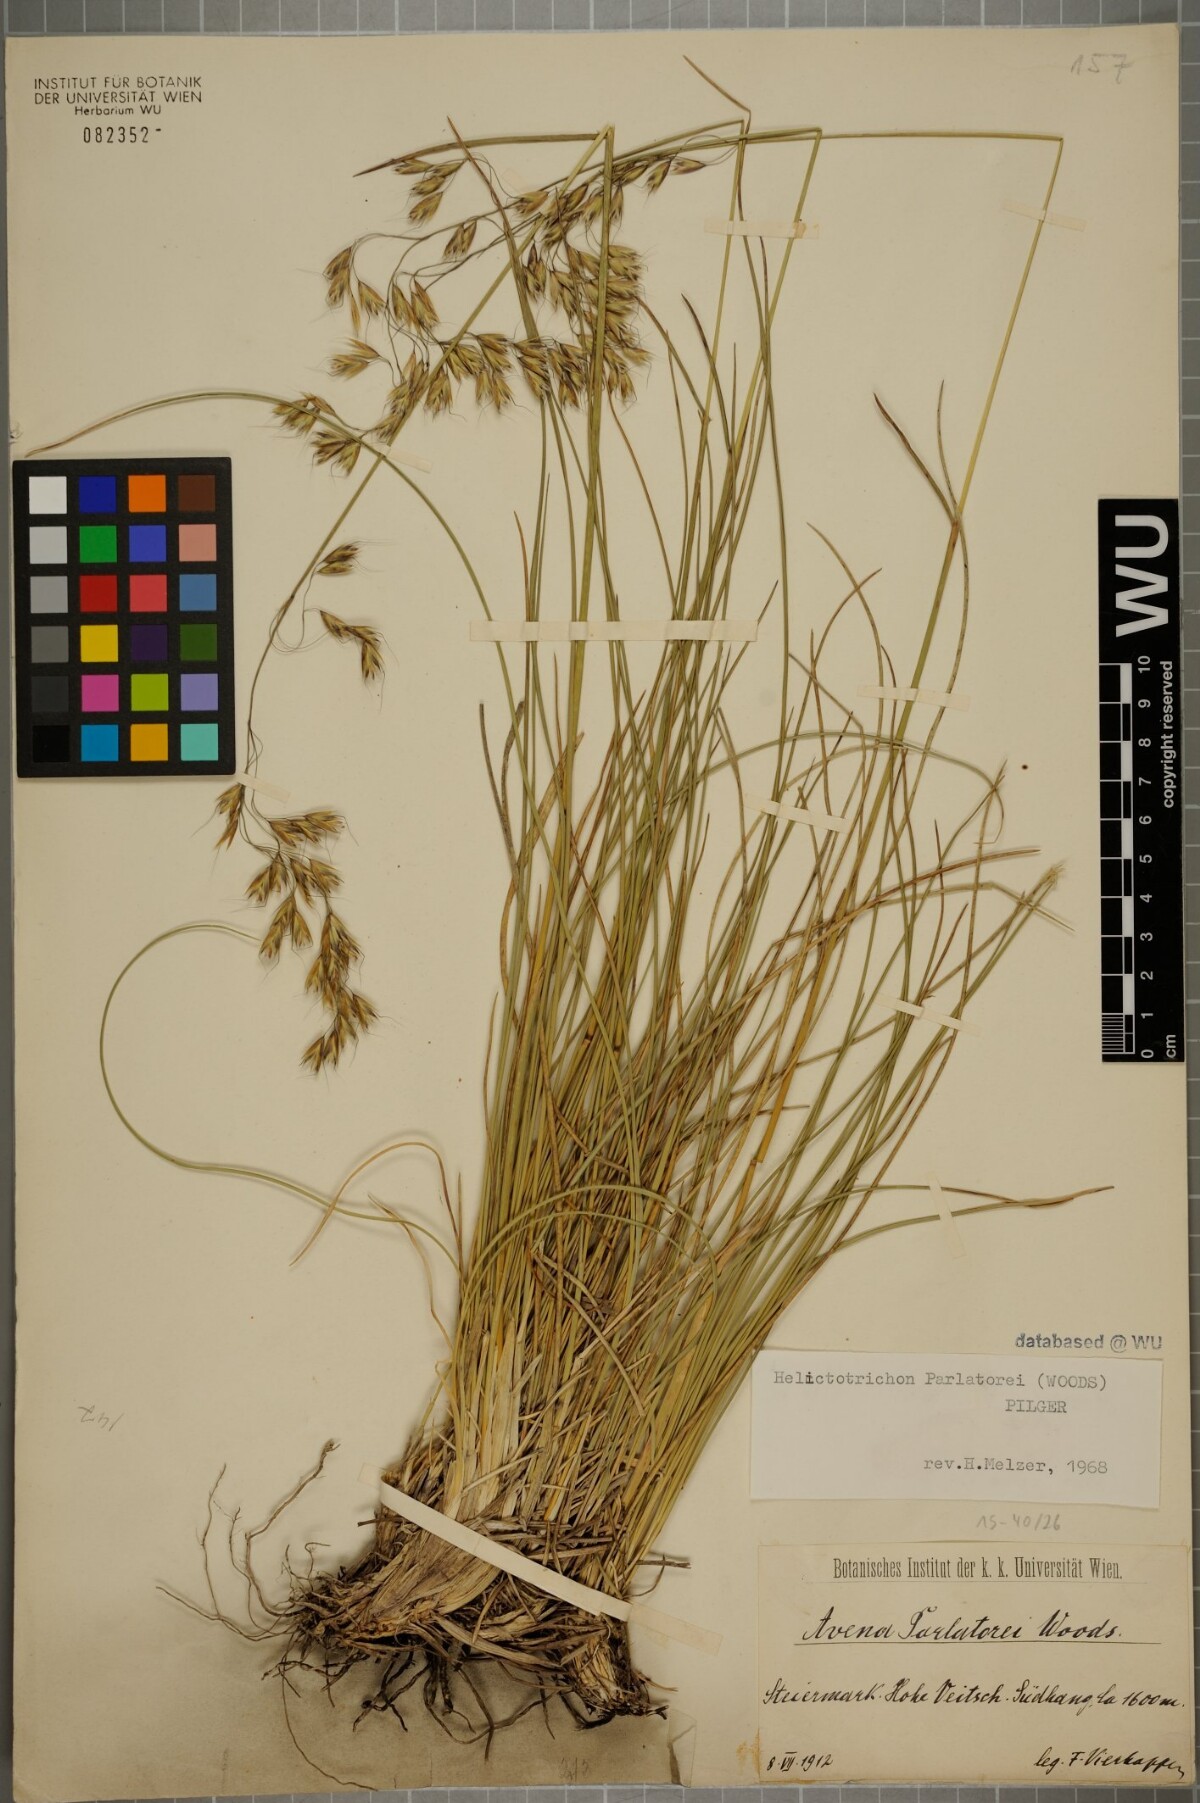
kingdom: Plantae
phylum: Tracheophyta
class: Liliopsida
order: Poales
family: Poaceae
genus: Helictotrichon
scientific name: Helictotrichon parlatorei
